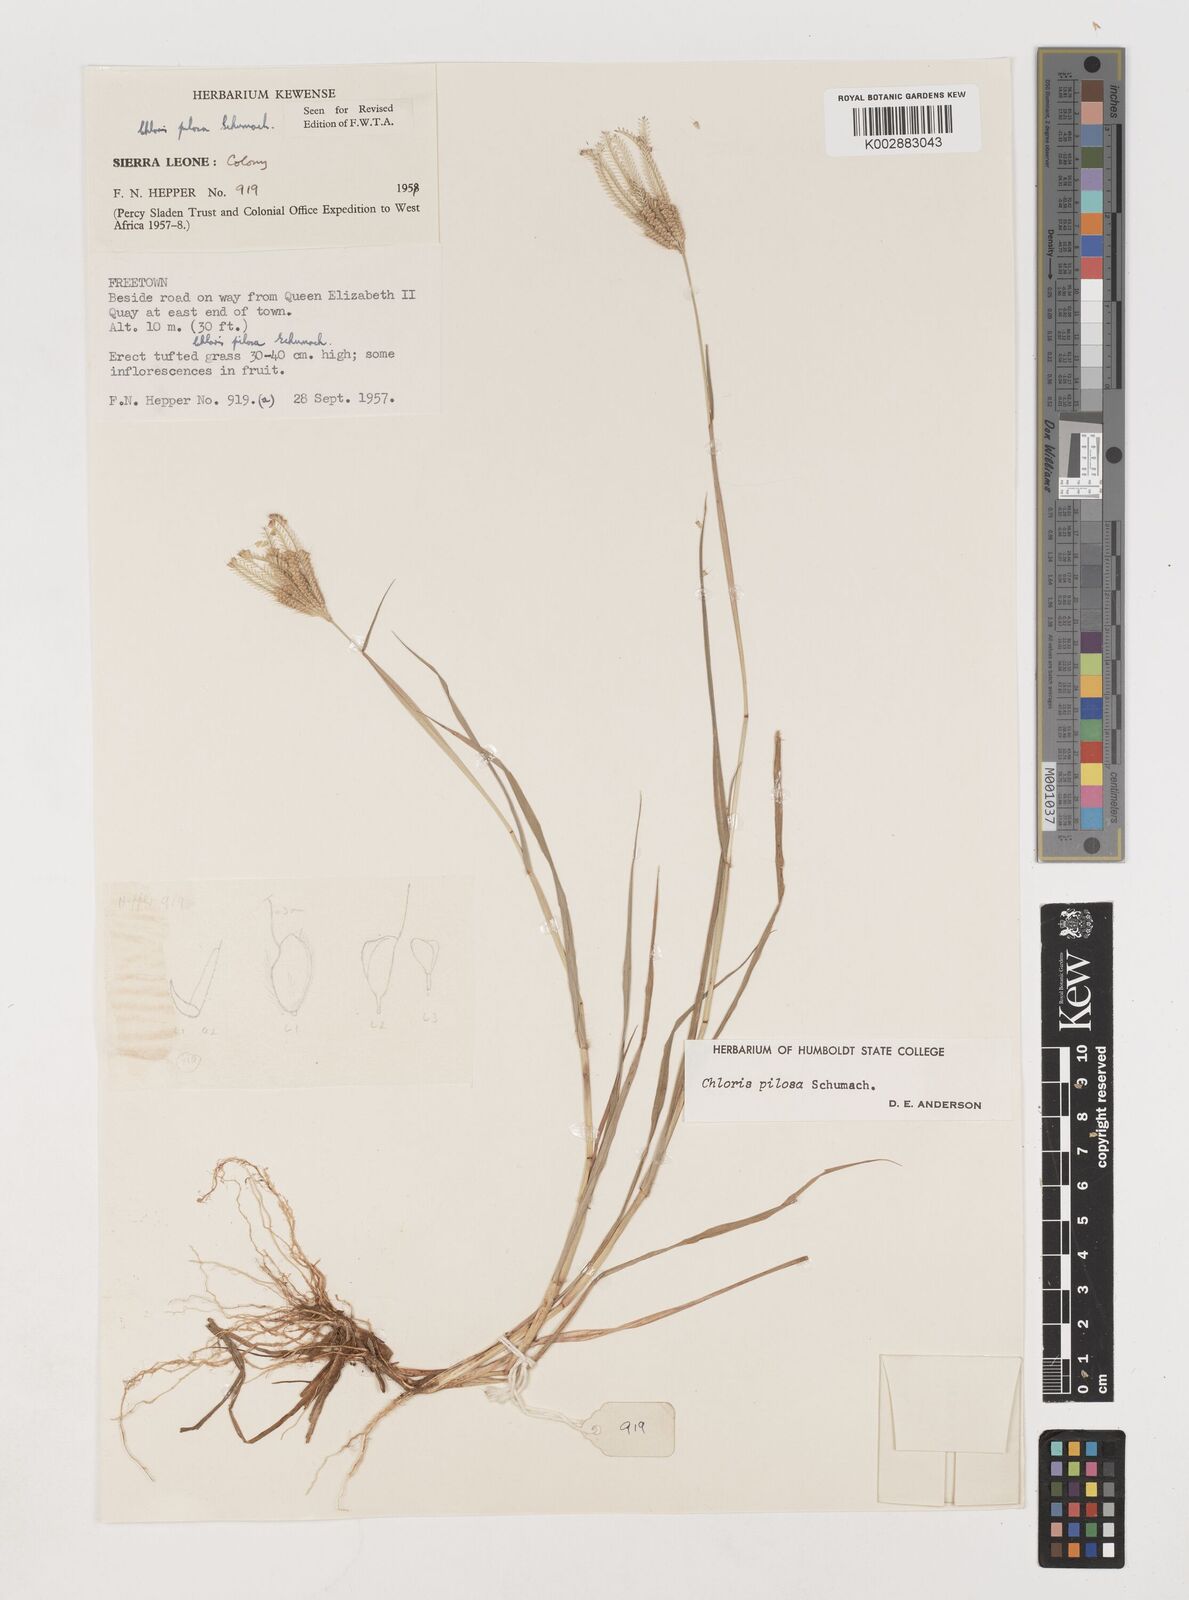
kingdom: Plantae
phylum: Tracheophyta
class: Liliopsida
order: Poales
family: Poaceae
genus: Chloris
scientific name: Chloris pilosa
